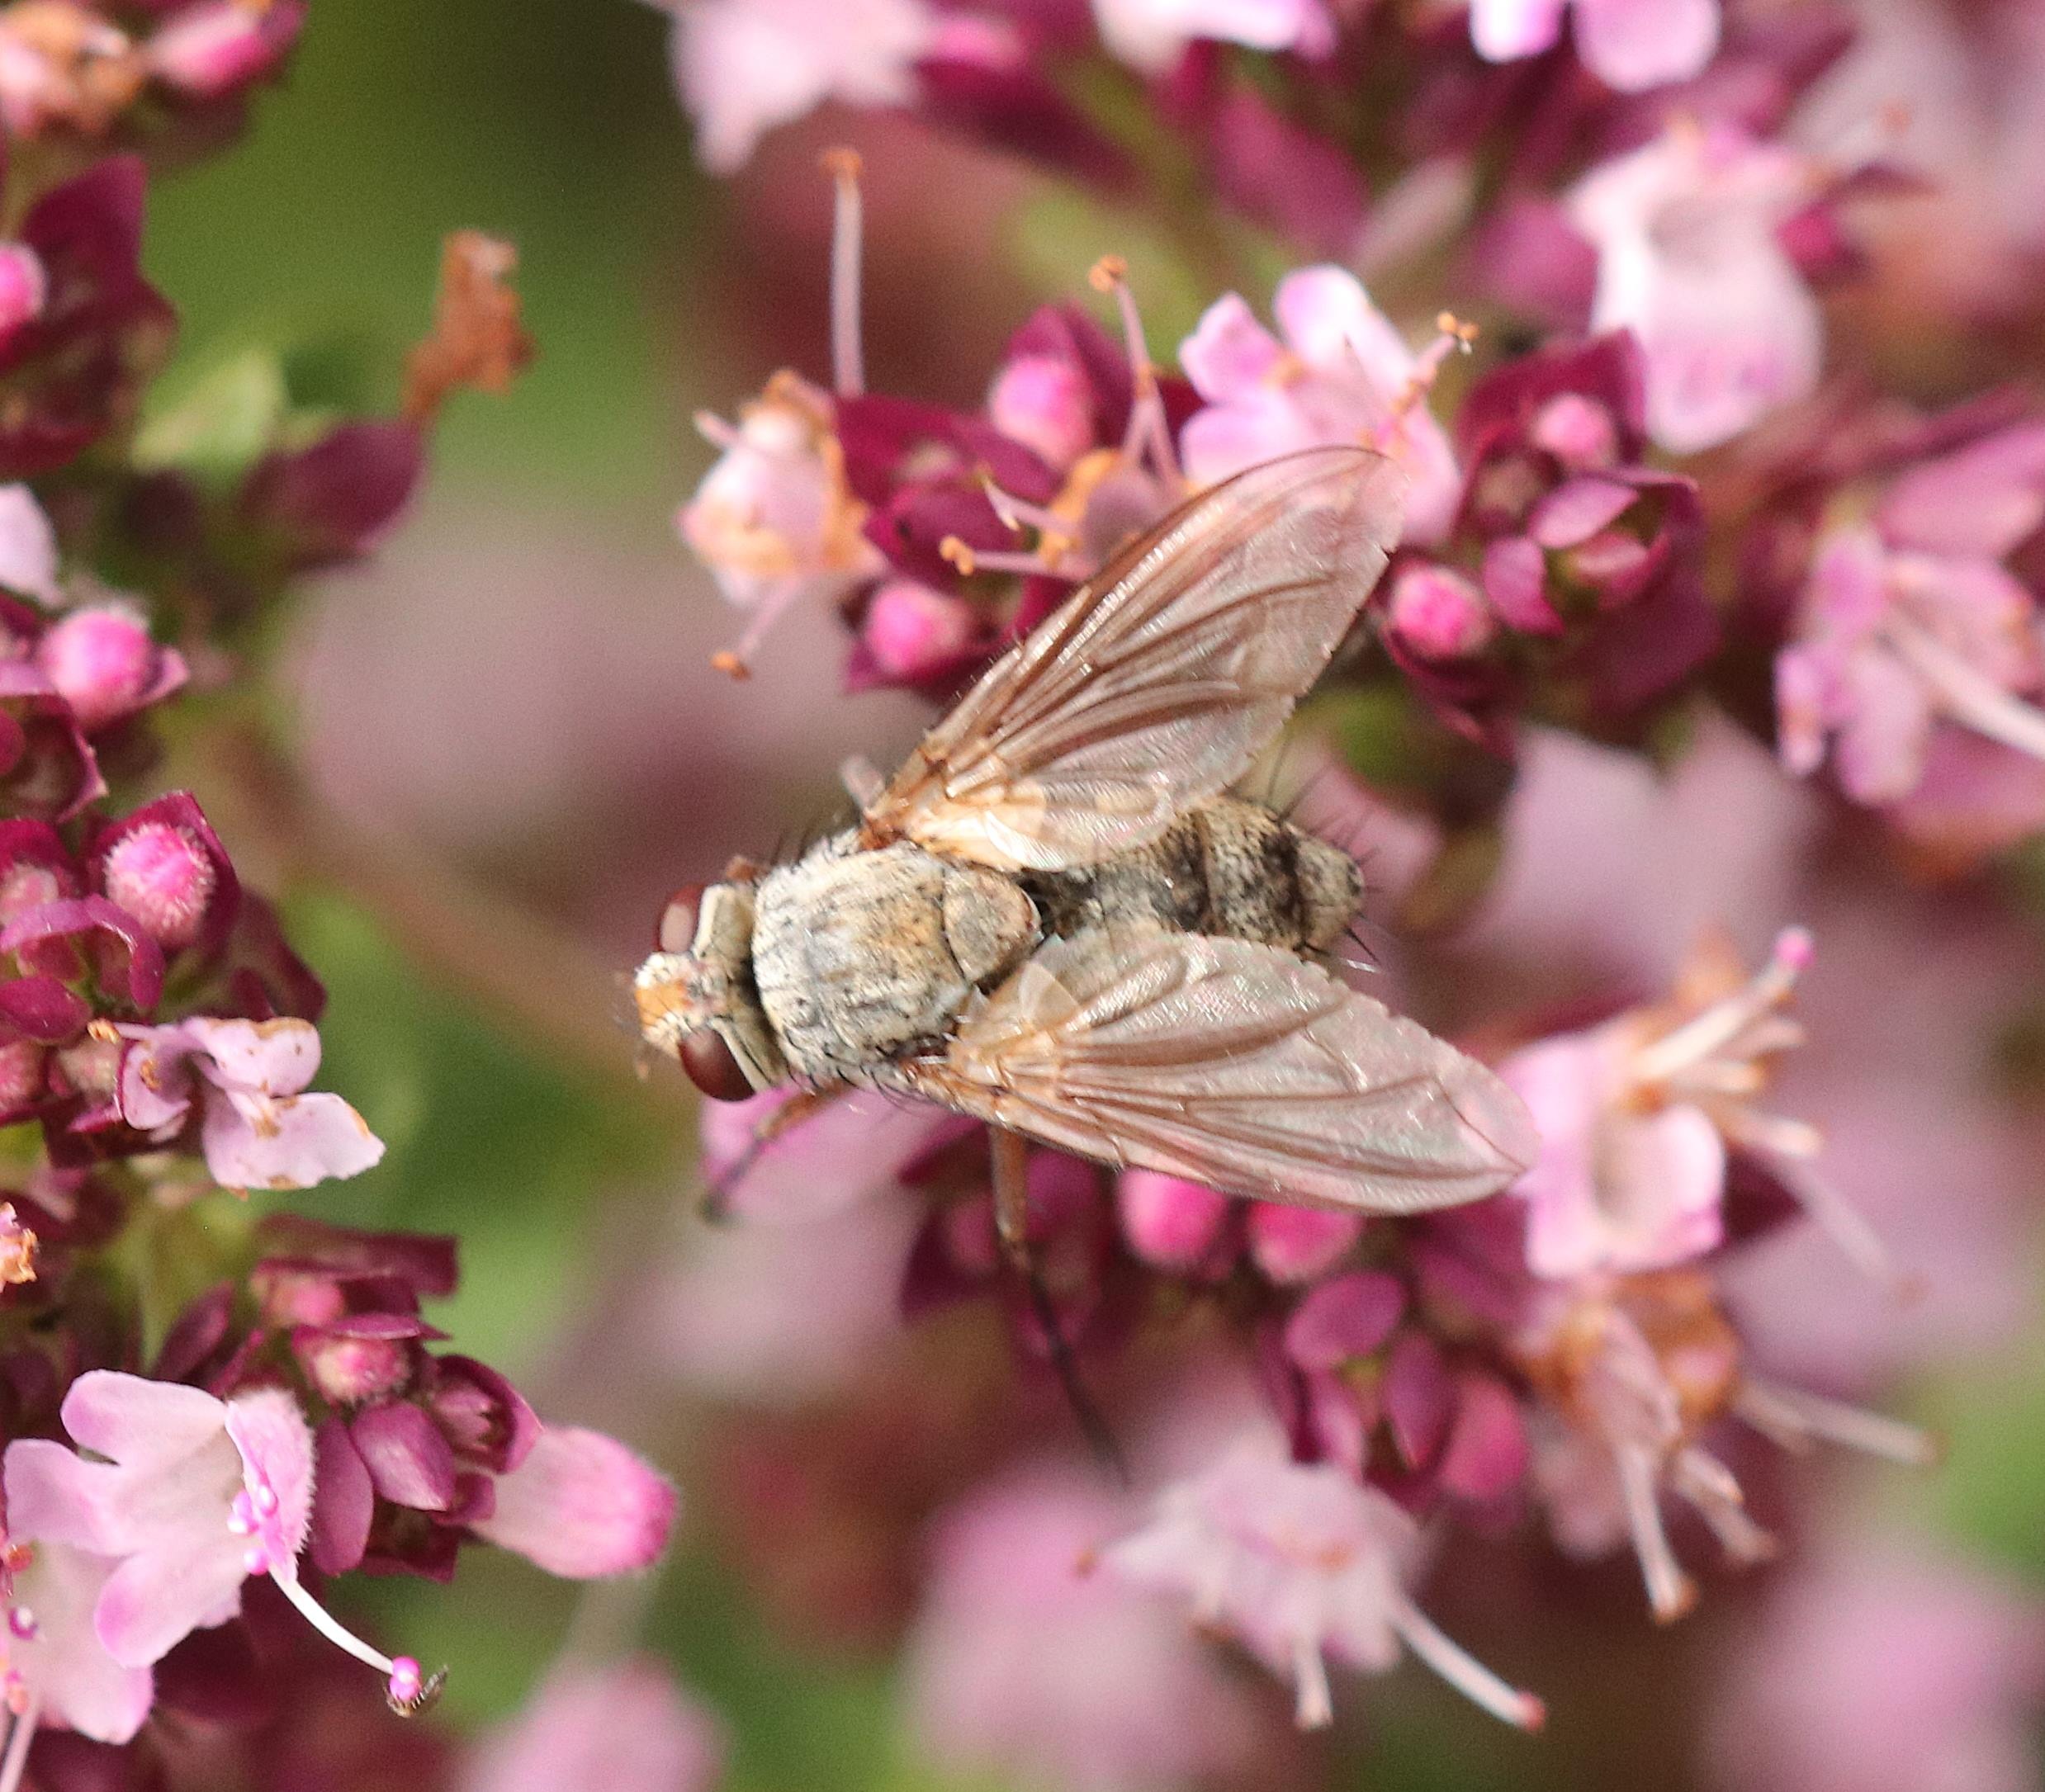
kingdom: Animalia
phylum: Arthropoda
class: Insecta
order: Diptera
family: Tachinidae
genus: Prosena
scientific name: Prosena siberita
